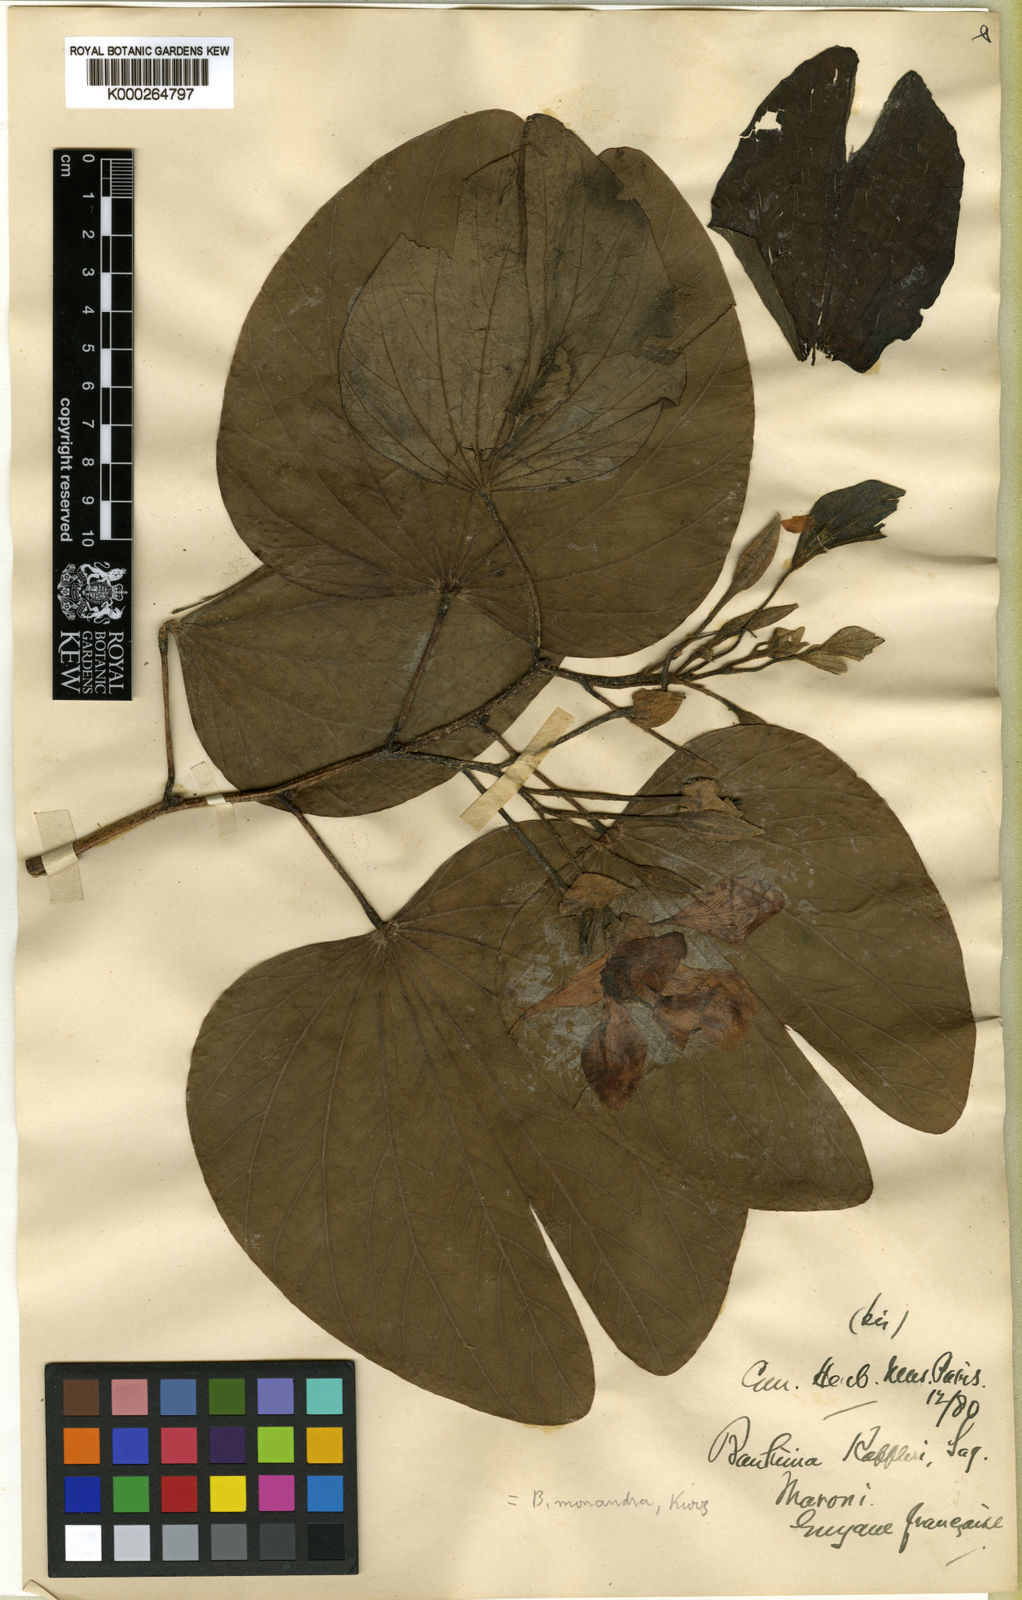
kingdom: Plantae
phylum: Tracheophyta
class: Magnoliopsida
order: Fabales
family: Fabaceae
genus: Bauhinia
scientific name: Bauhinia monandra
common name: Napoleon's plume
